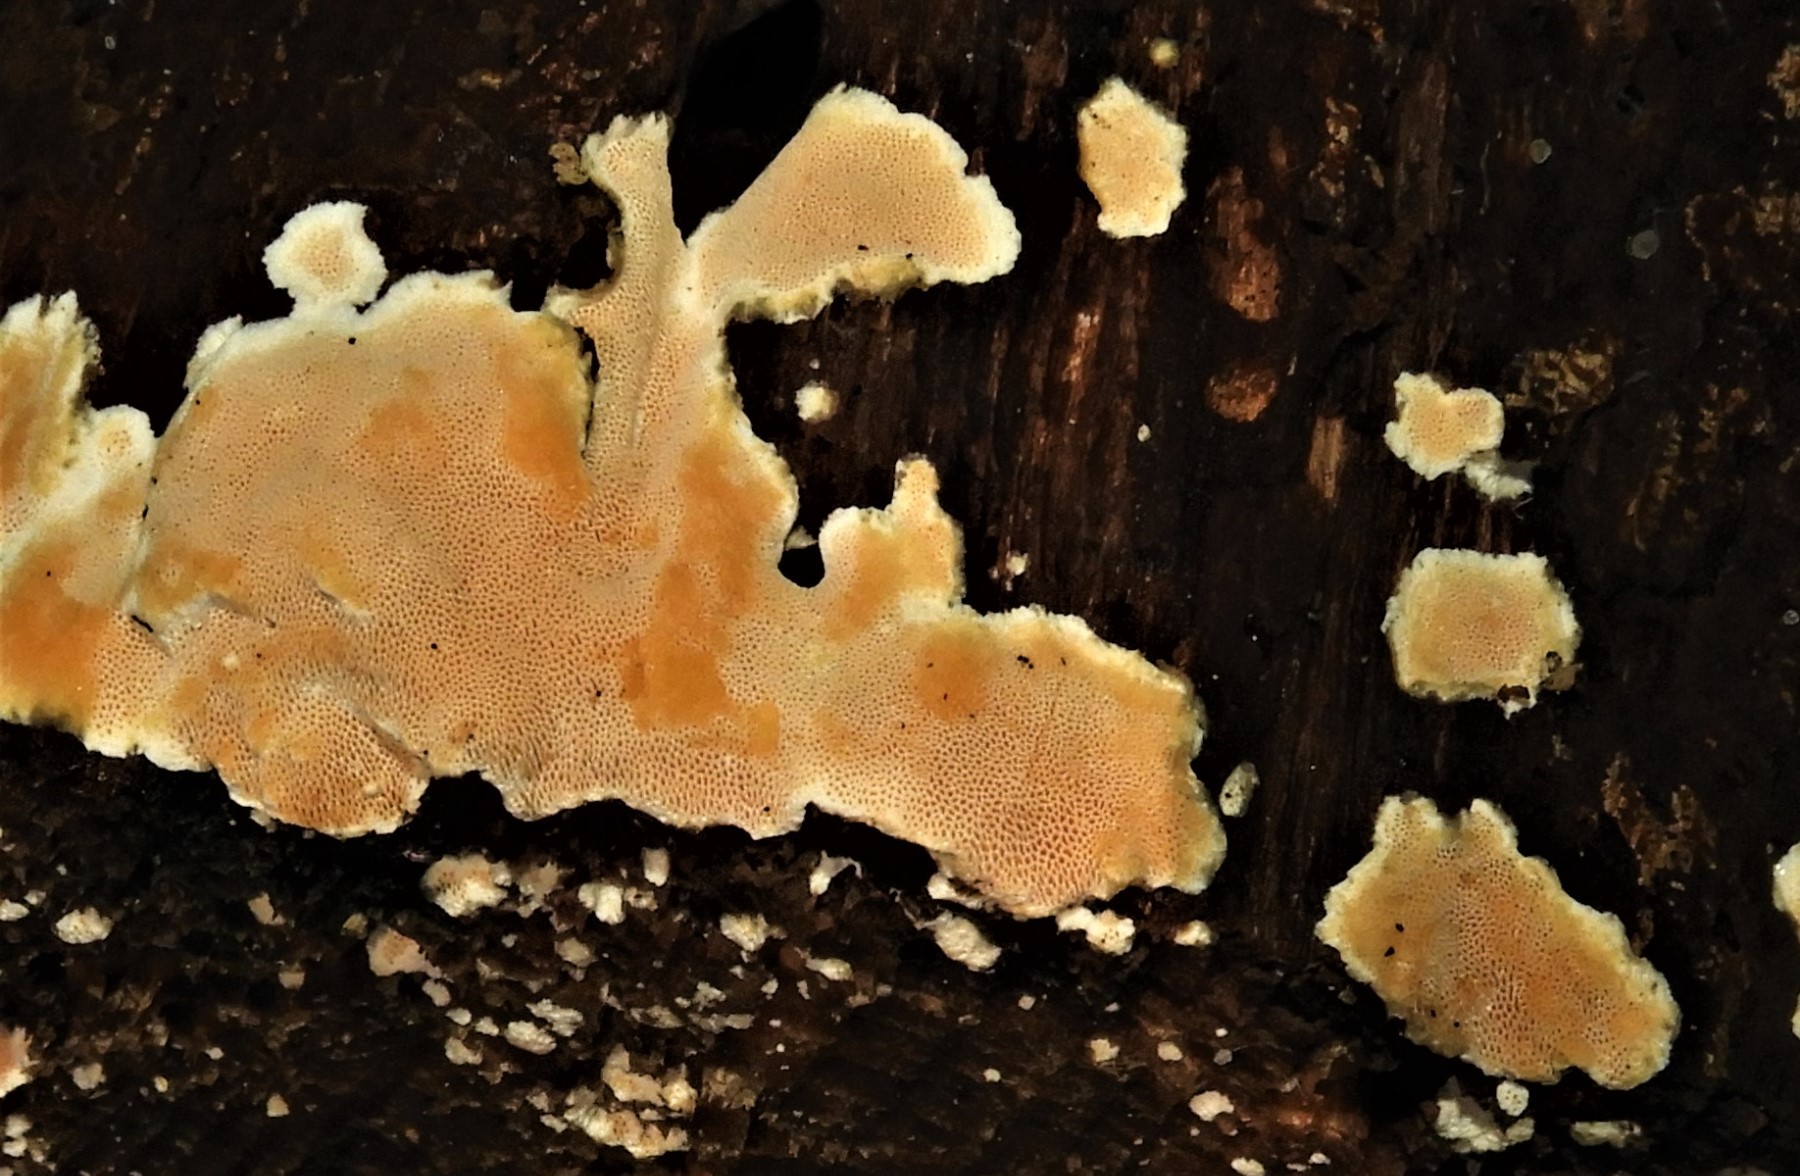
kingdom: Fungi
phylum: Basidiomycota
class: Agaricomycetes
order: Polyporales
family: Steccherinaceae
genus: Junghuhnia
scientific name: Junghuhnia nitida
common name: almindelig skønporesvamp
